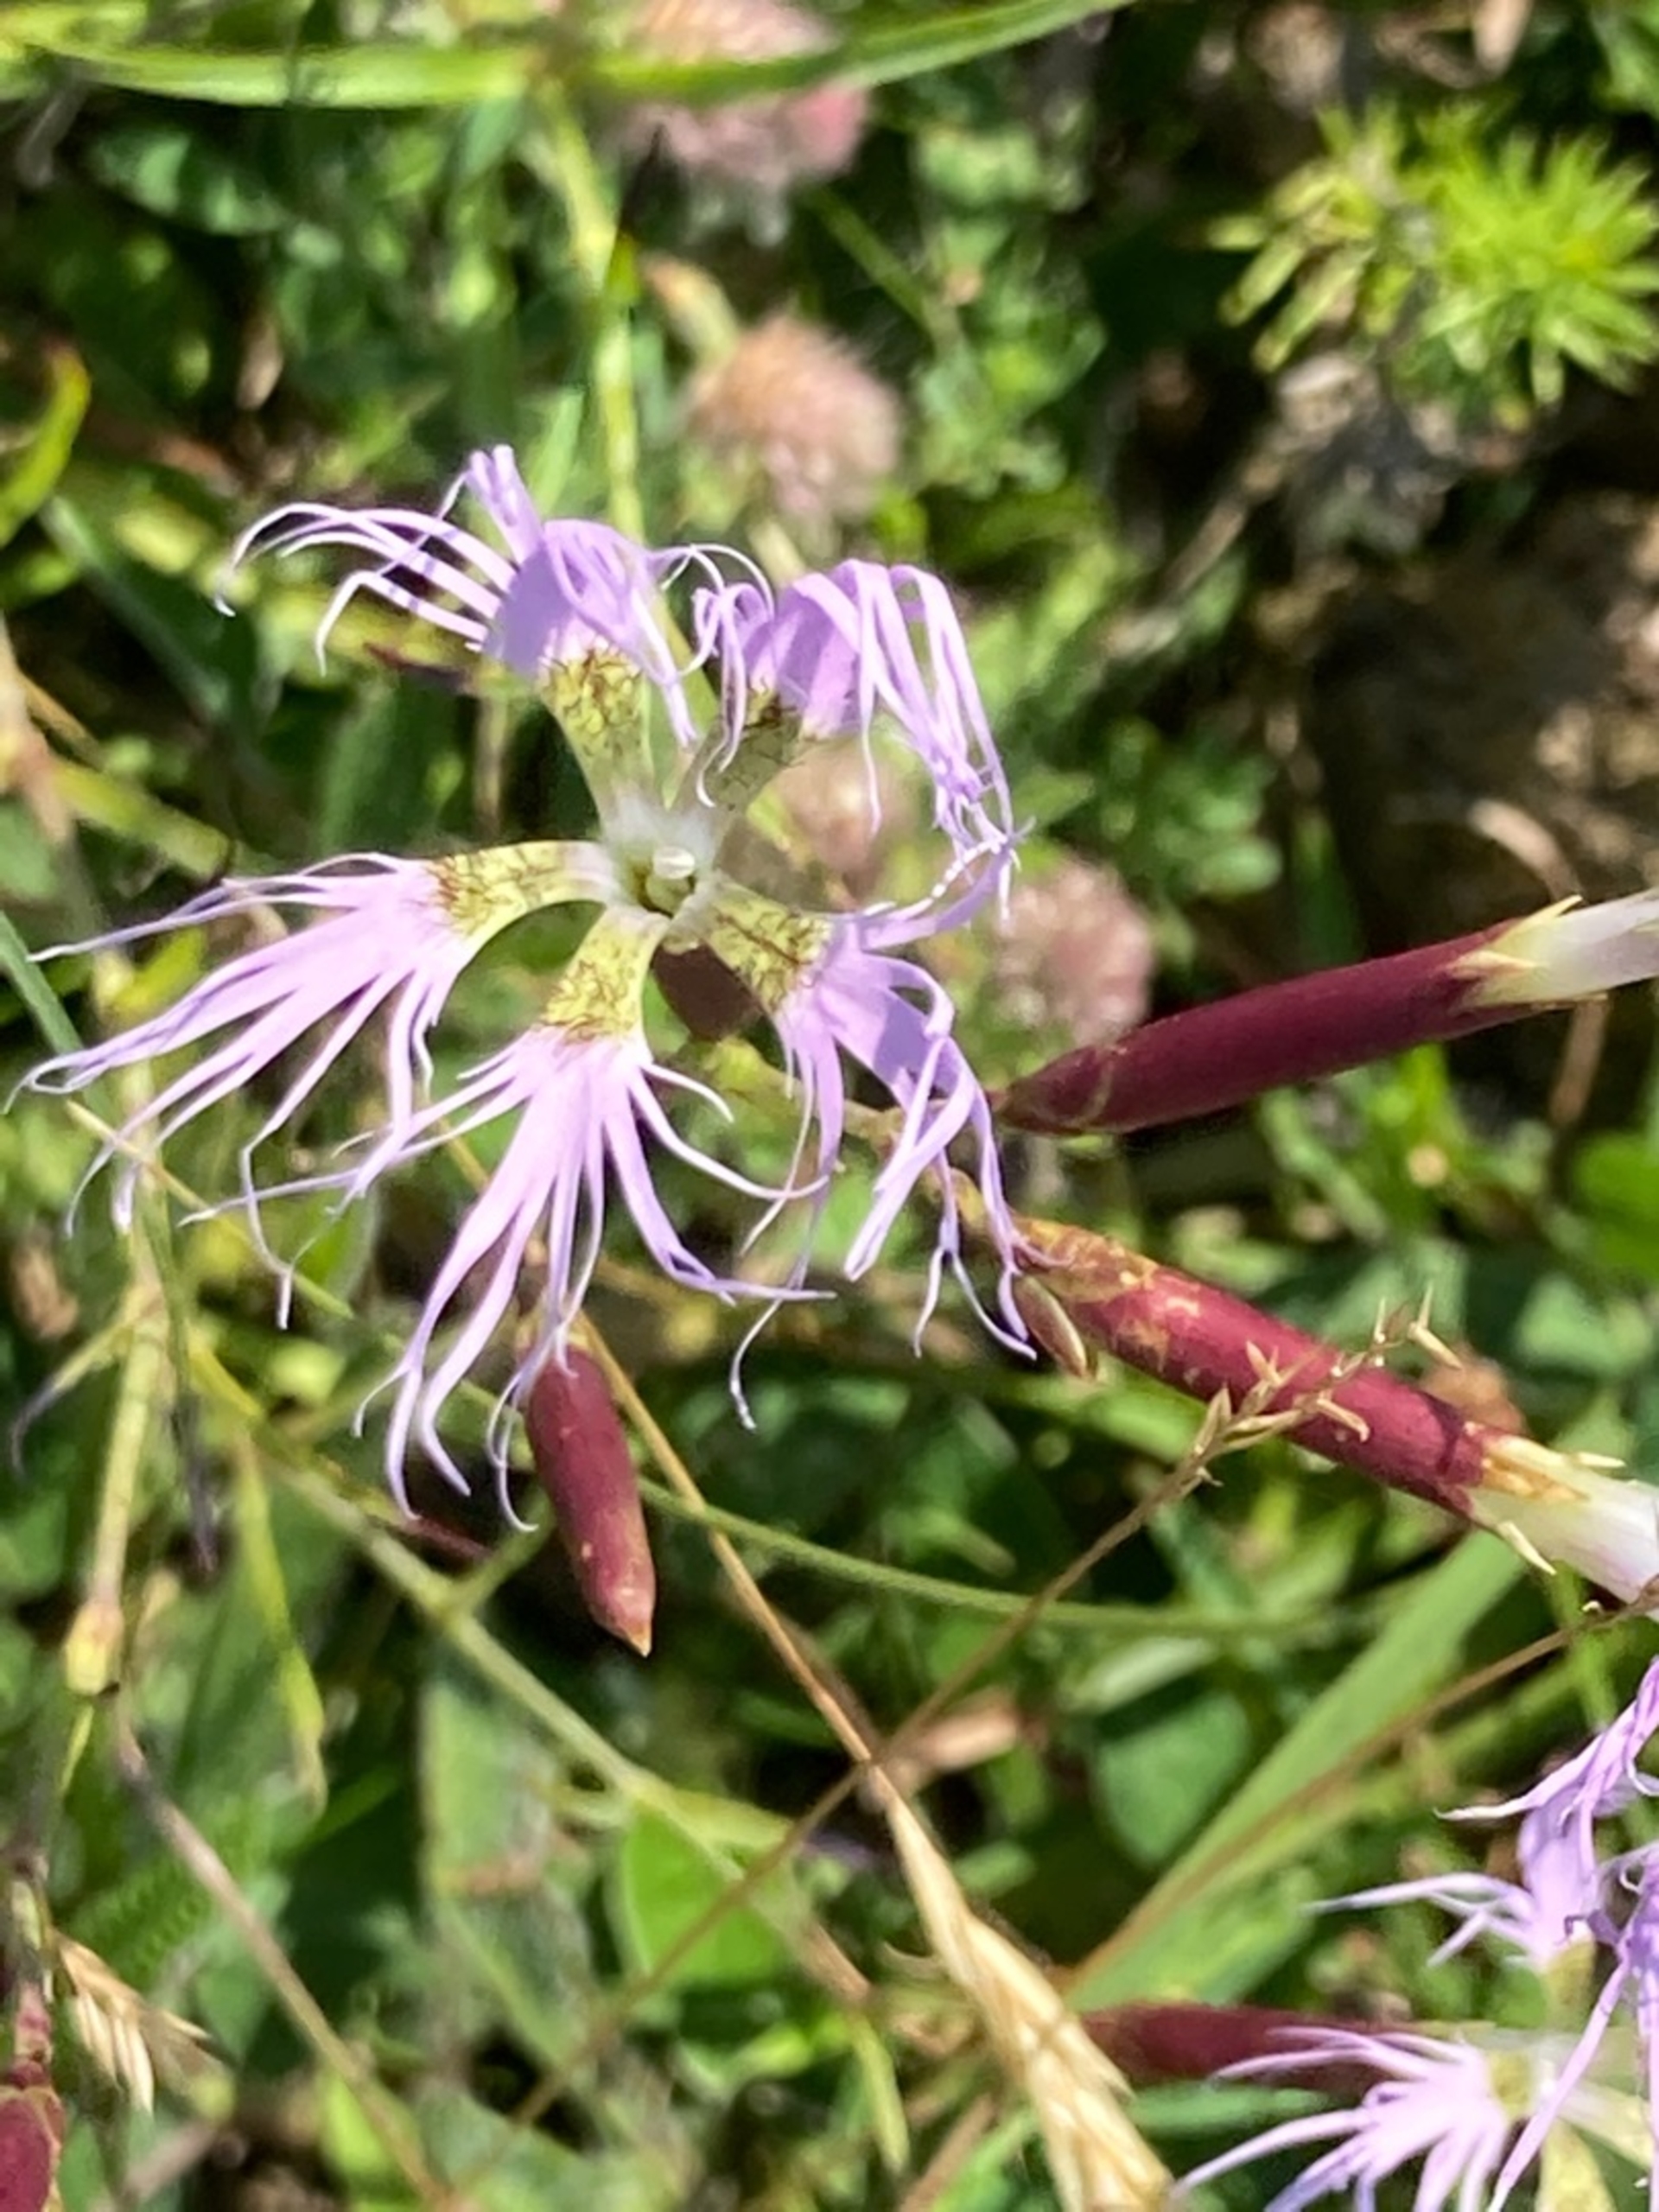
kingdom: Plantae
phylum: Tracheophyta
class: Magnoliopsida
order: Caryophyllales
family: Caryophyllaceae
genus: Dianthus
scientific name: Dianthus superbus
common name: Strand-nellike
